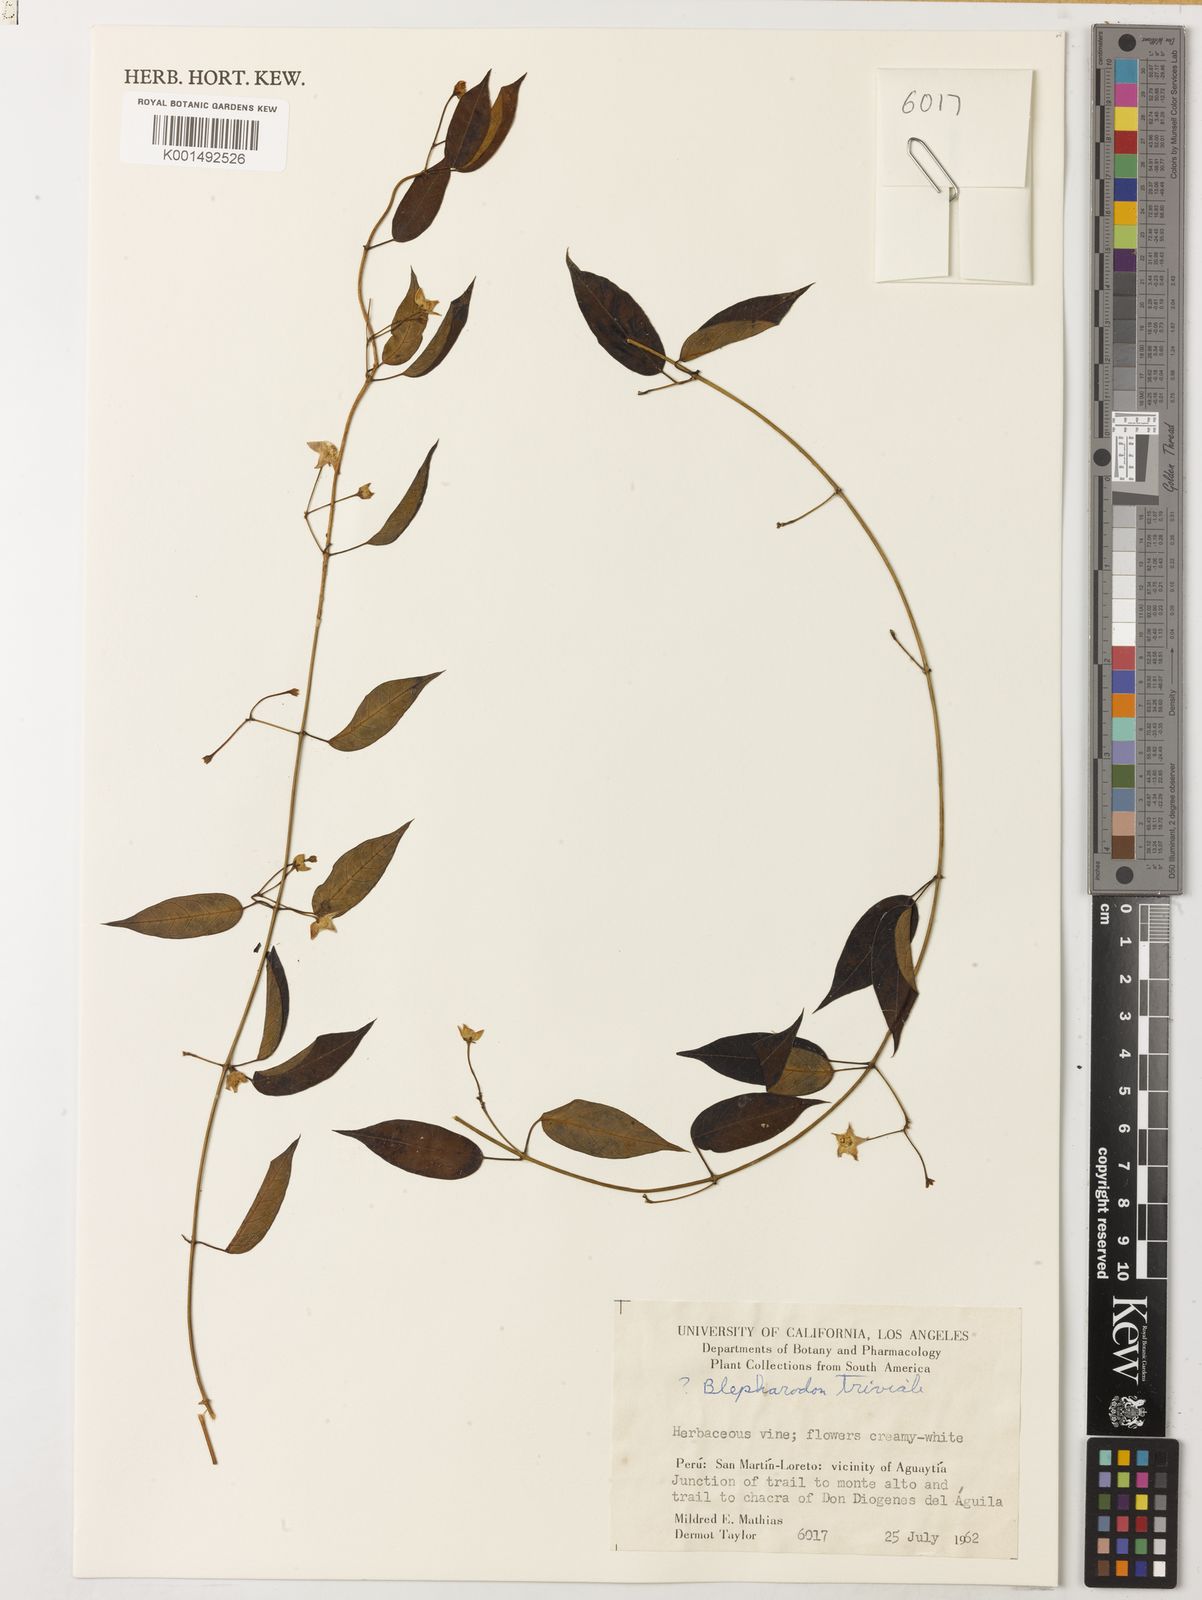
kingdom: Plantae
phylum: Tracheophyta
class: Magnoliopsida
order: Gentianales
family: Apocynaceae
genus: Blepharodon
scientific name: Blepharodon
